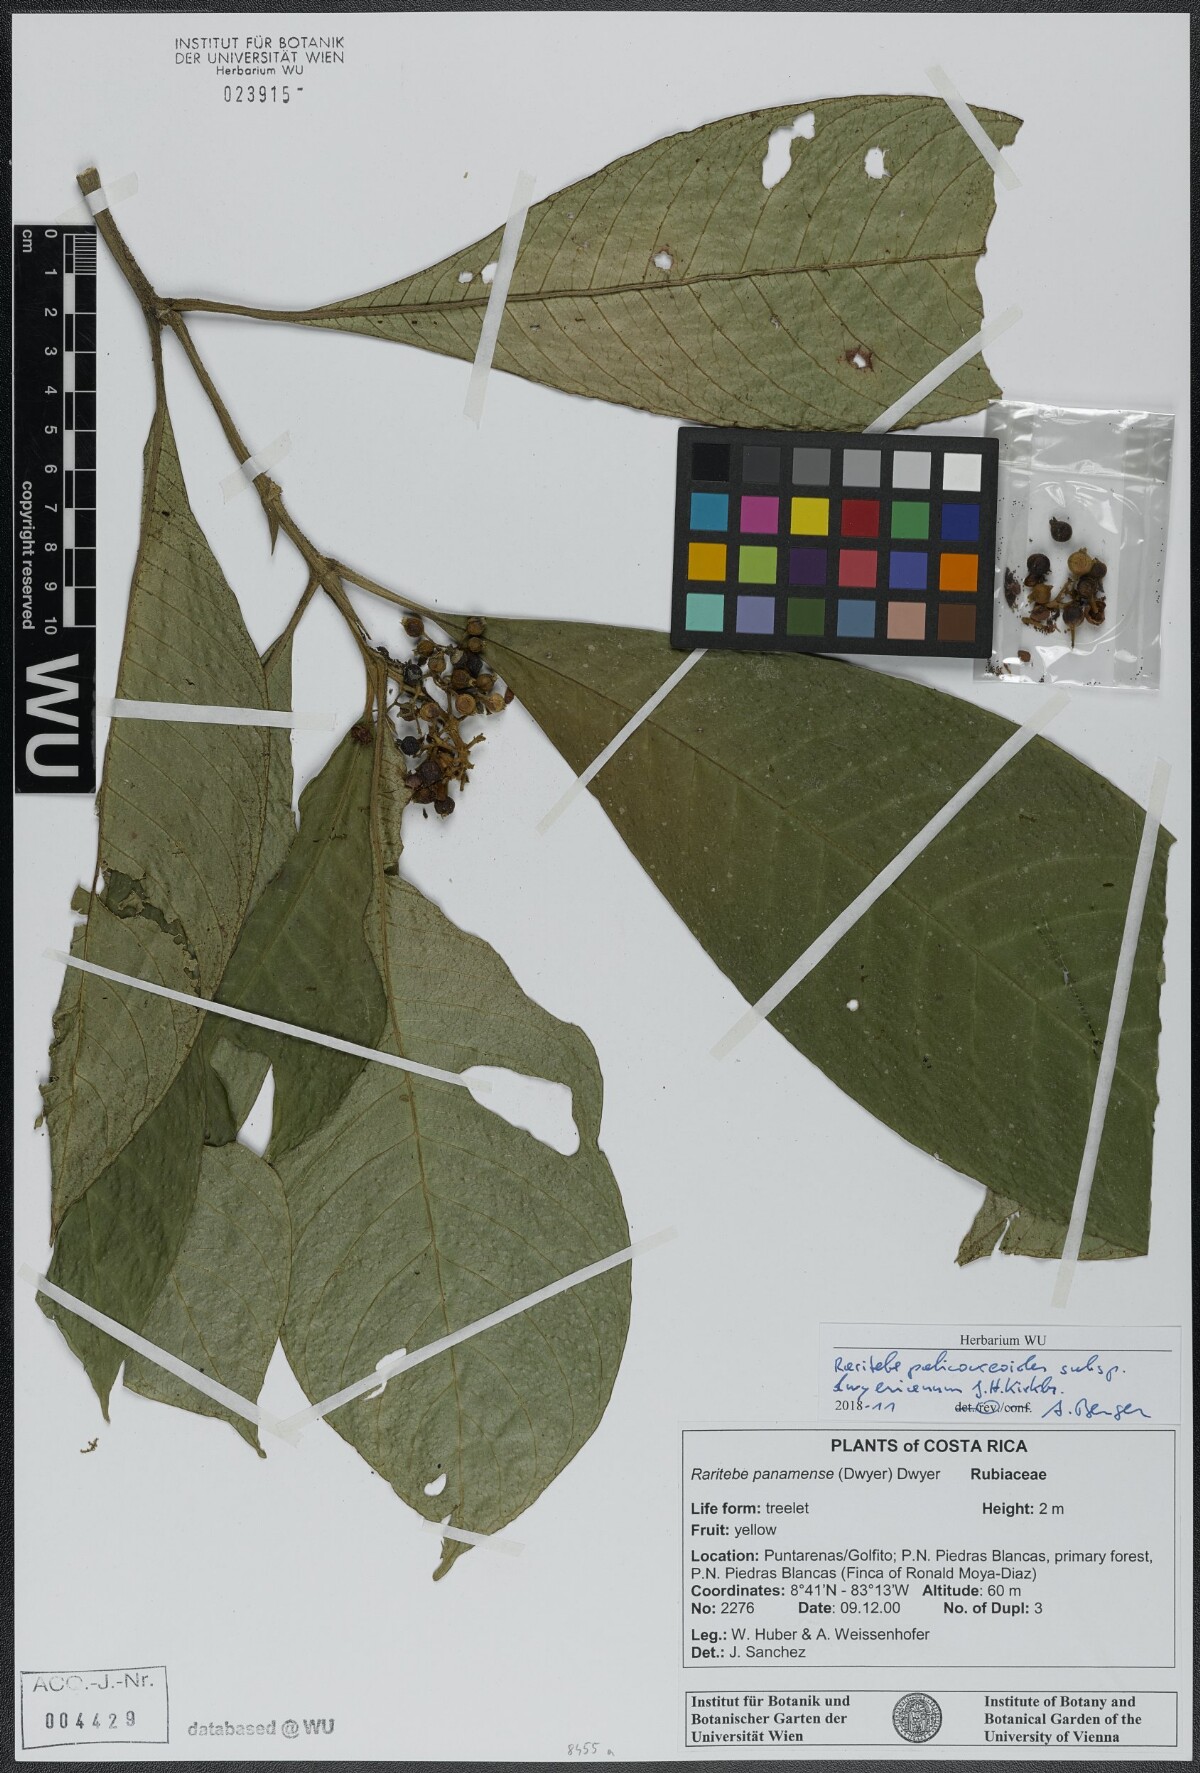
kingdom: Plantae
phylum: Tracheophyta
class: Magnoliopsida
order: Gentianales
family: Rubiaceae
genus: Raritebe
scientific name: Raritebe palicoureoides
